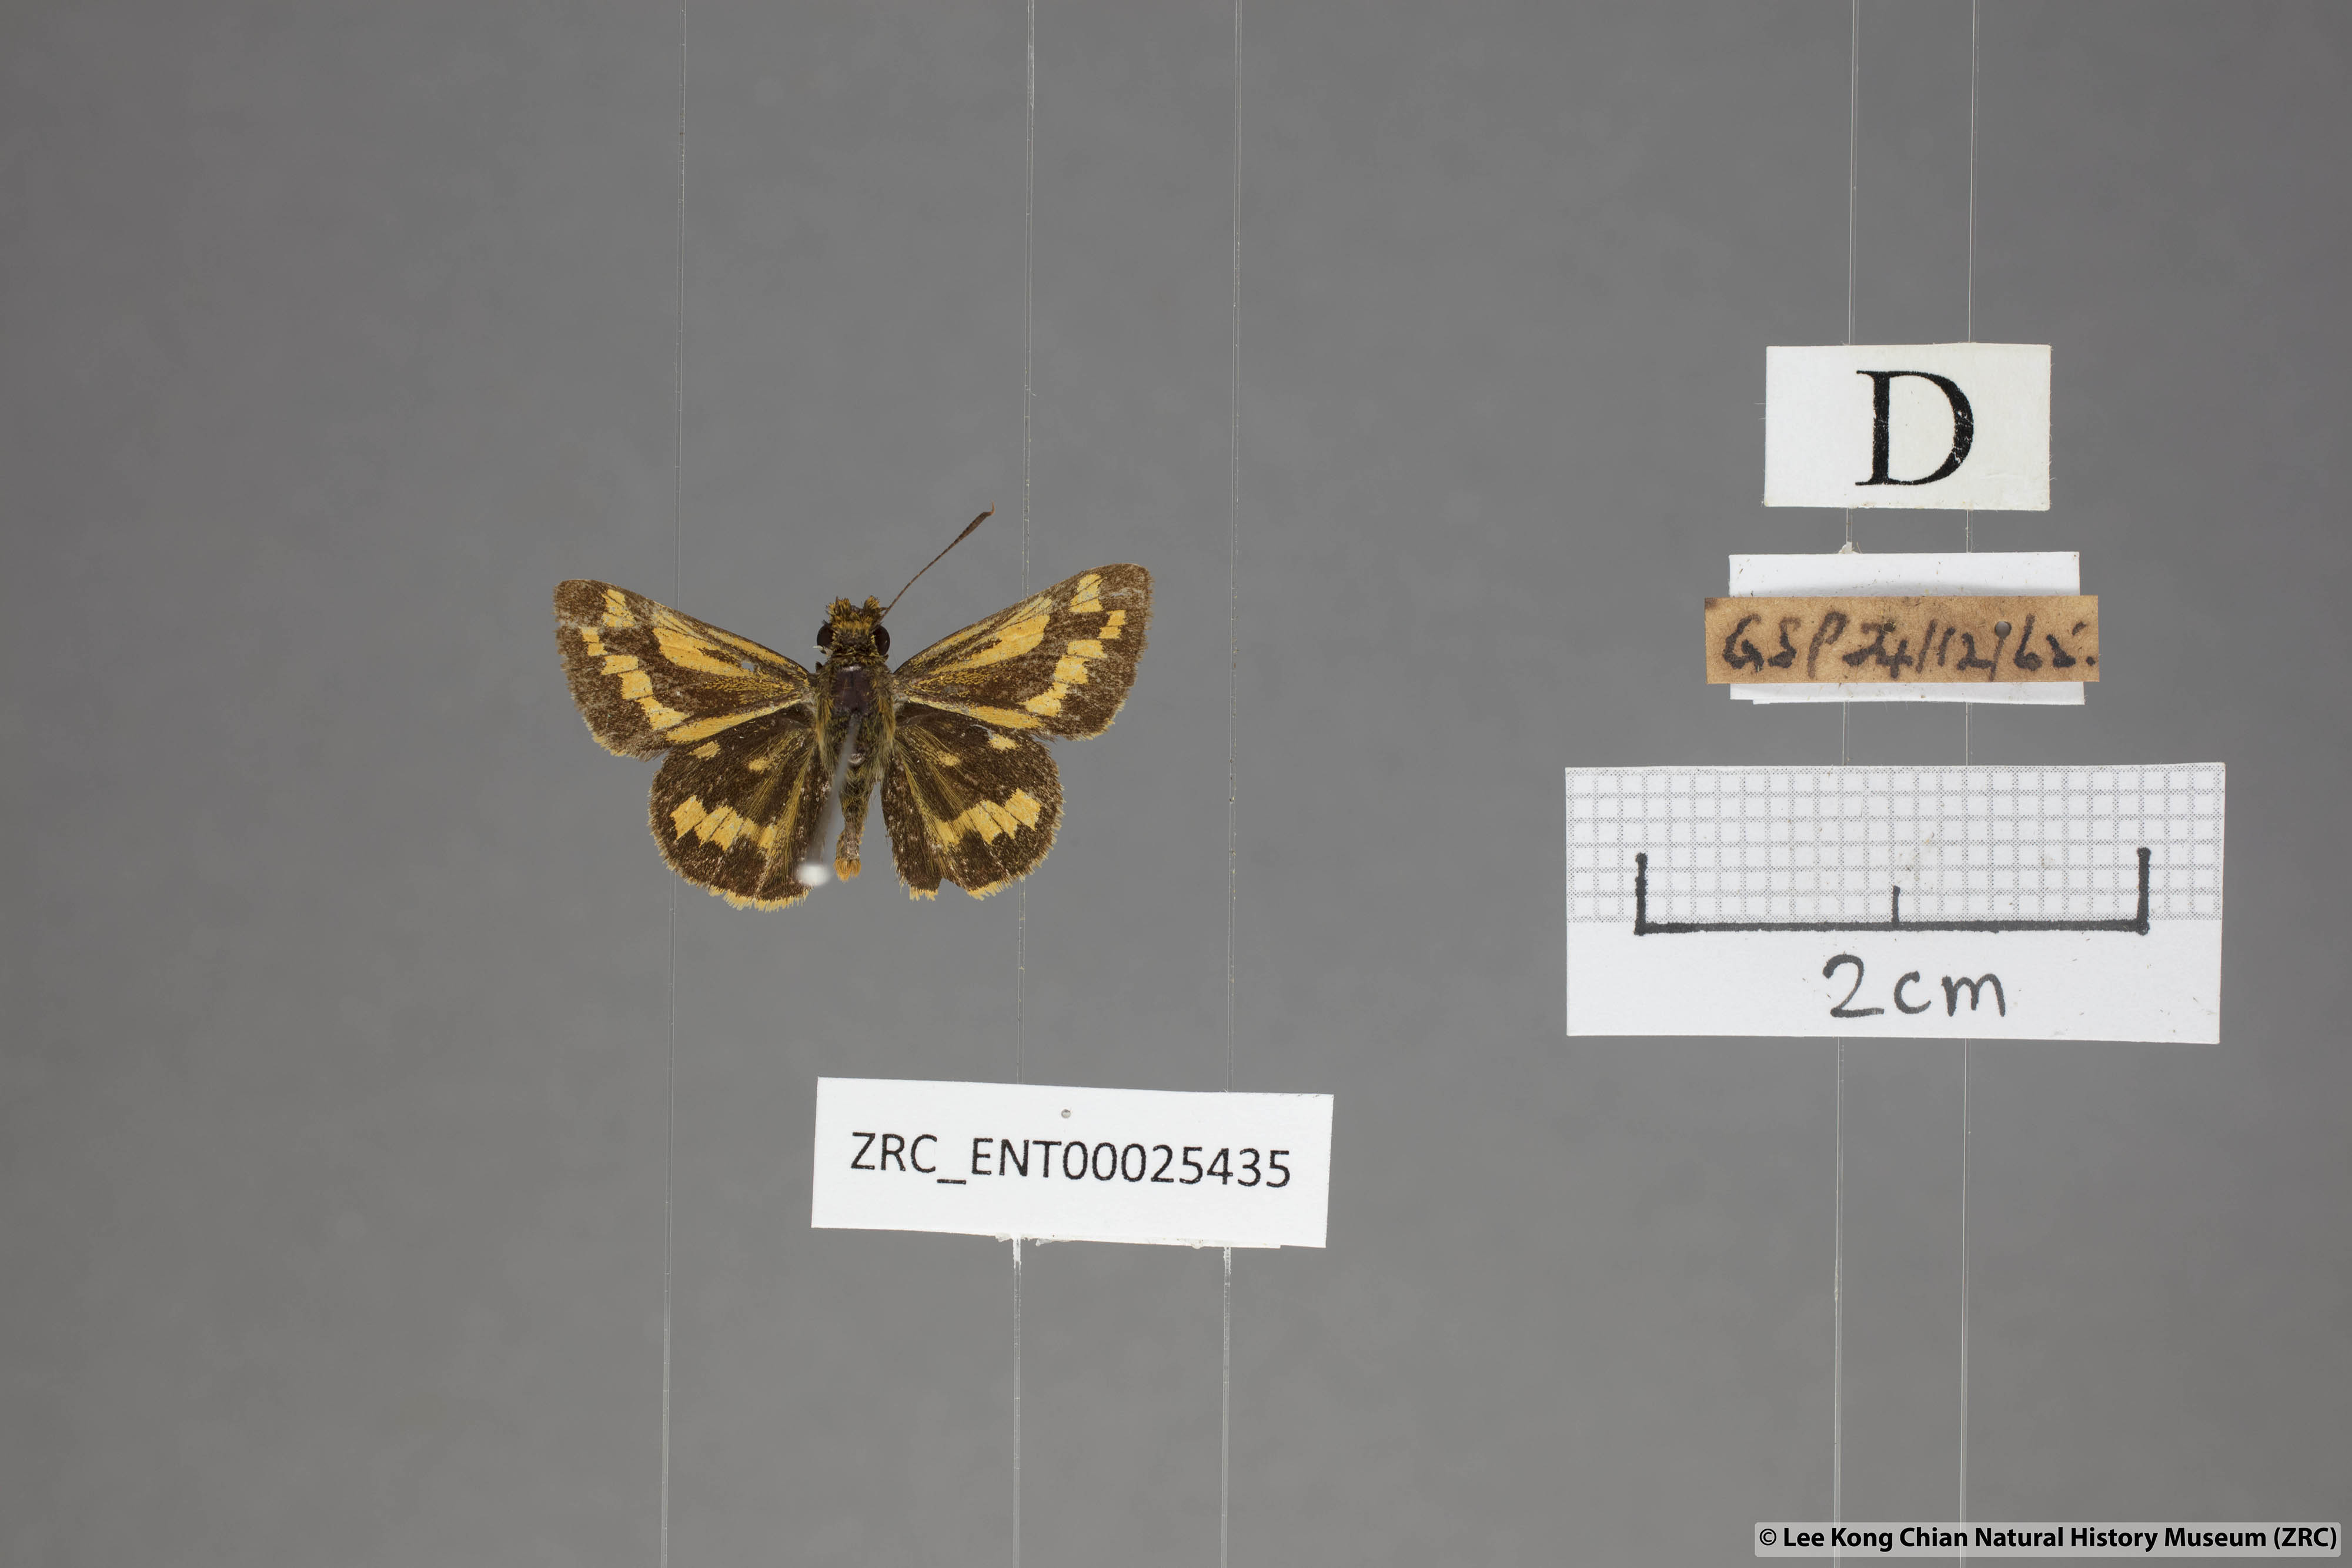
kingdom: Animalia
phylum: Arthropoda
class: Insecta
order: Lepidoptera
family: Hesperiidae
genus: Potanthus
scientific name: Potanthus omaha
